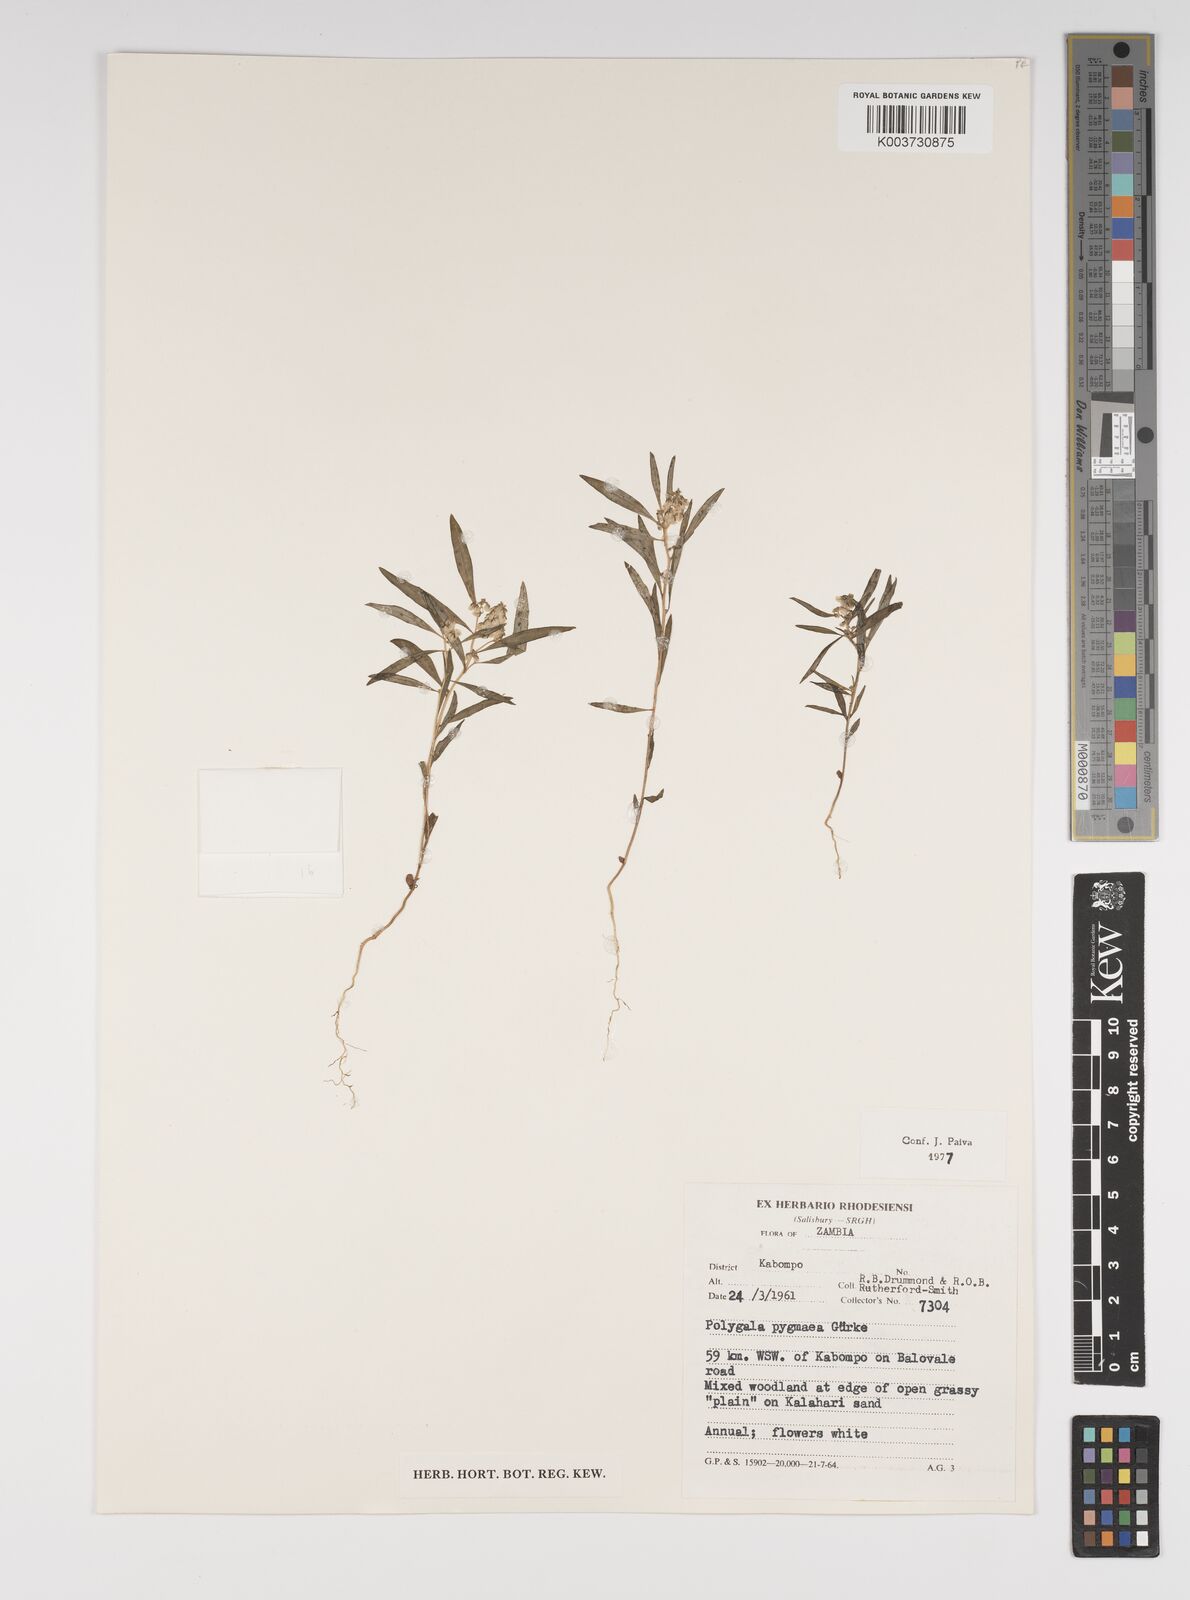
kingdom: Plantae
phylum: Tracheophyta
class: Magnoliopsida
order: Fabales
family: Polygalaceae
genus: Polygala
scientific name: Polygala welwitschii
